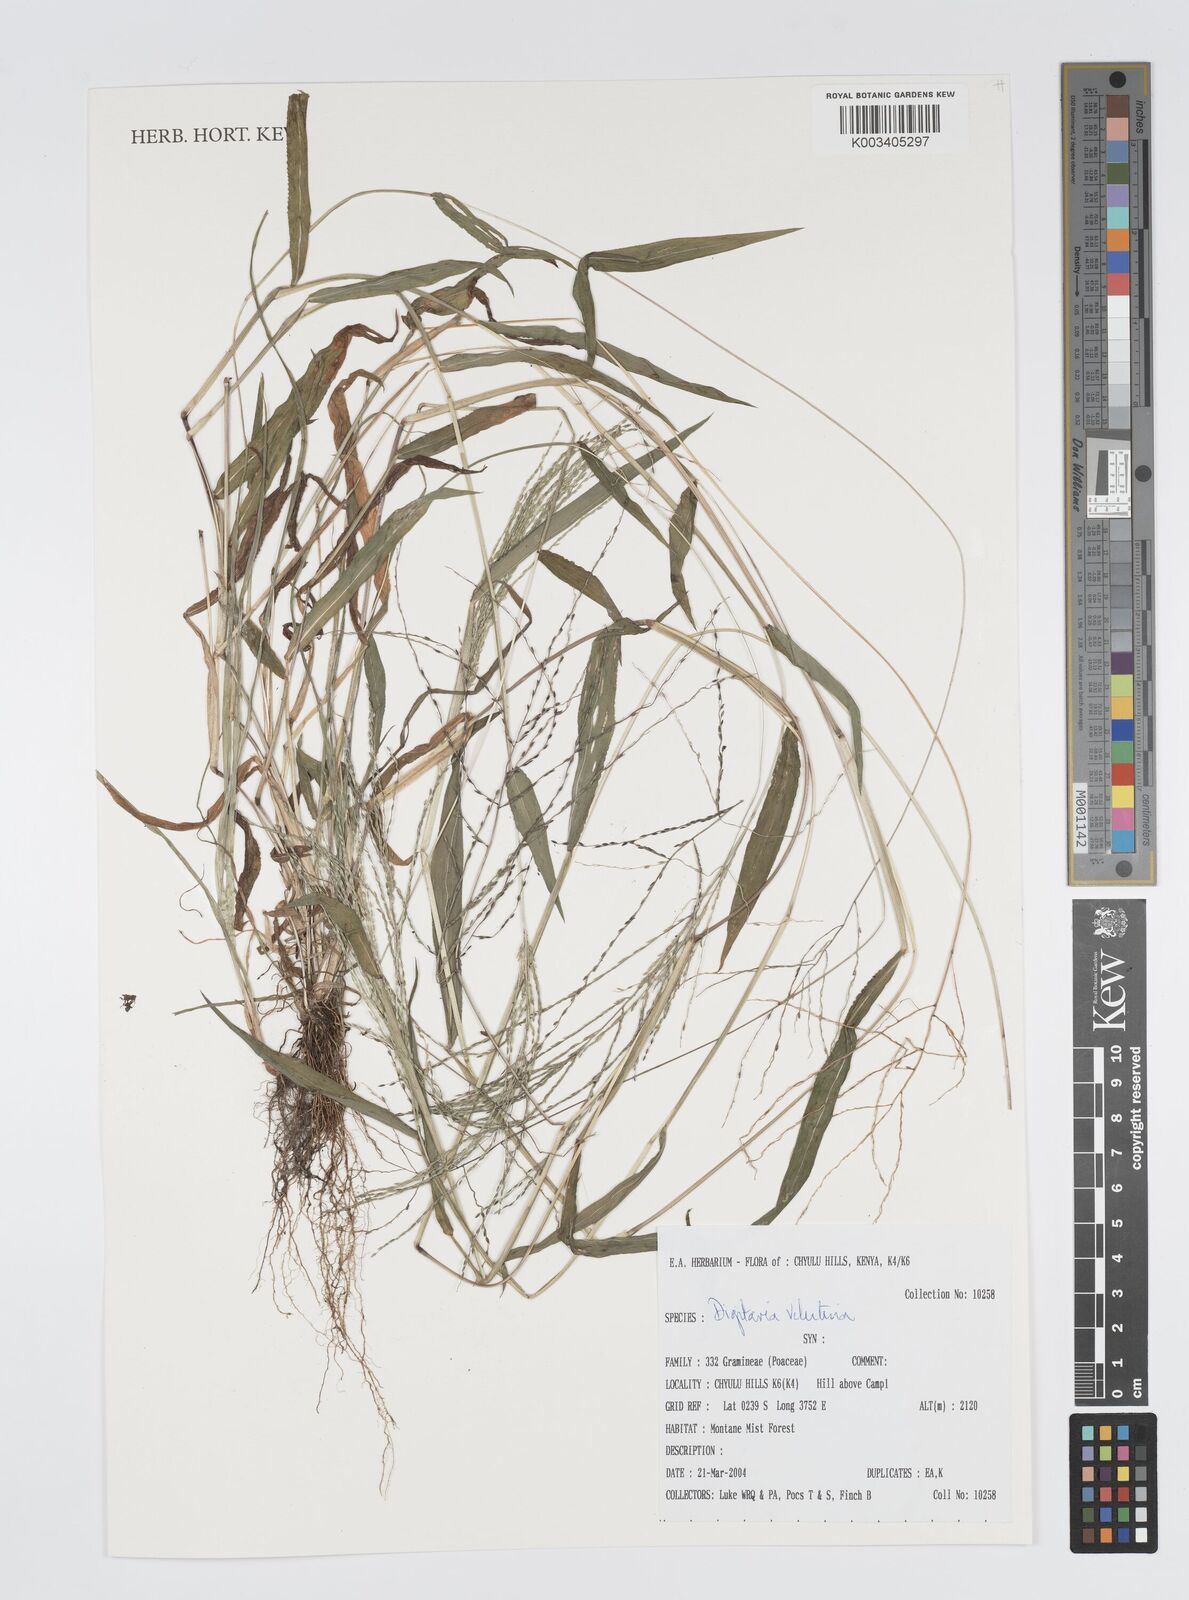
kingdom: Plantae
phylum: Tracheophyta
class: Liliopsida
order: Poales
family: Poaceae
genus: Digitaria
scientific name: Digitaria velutina
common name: Long-plume finger grass
